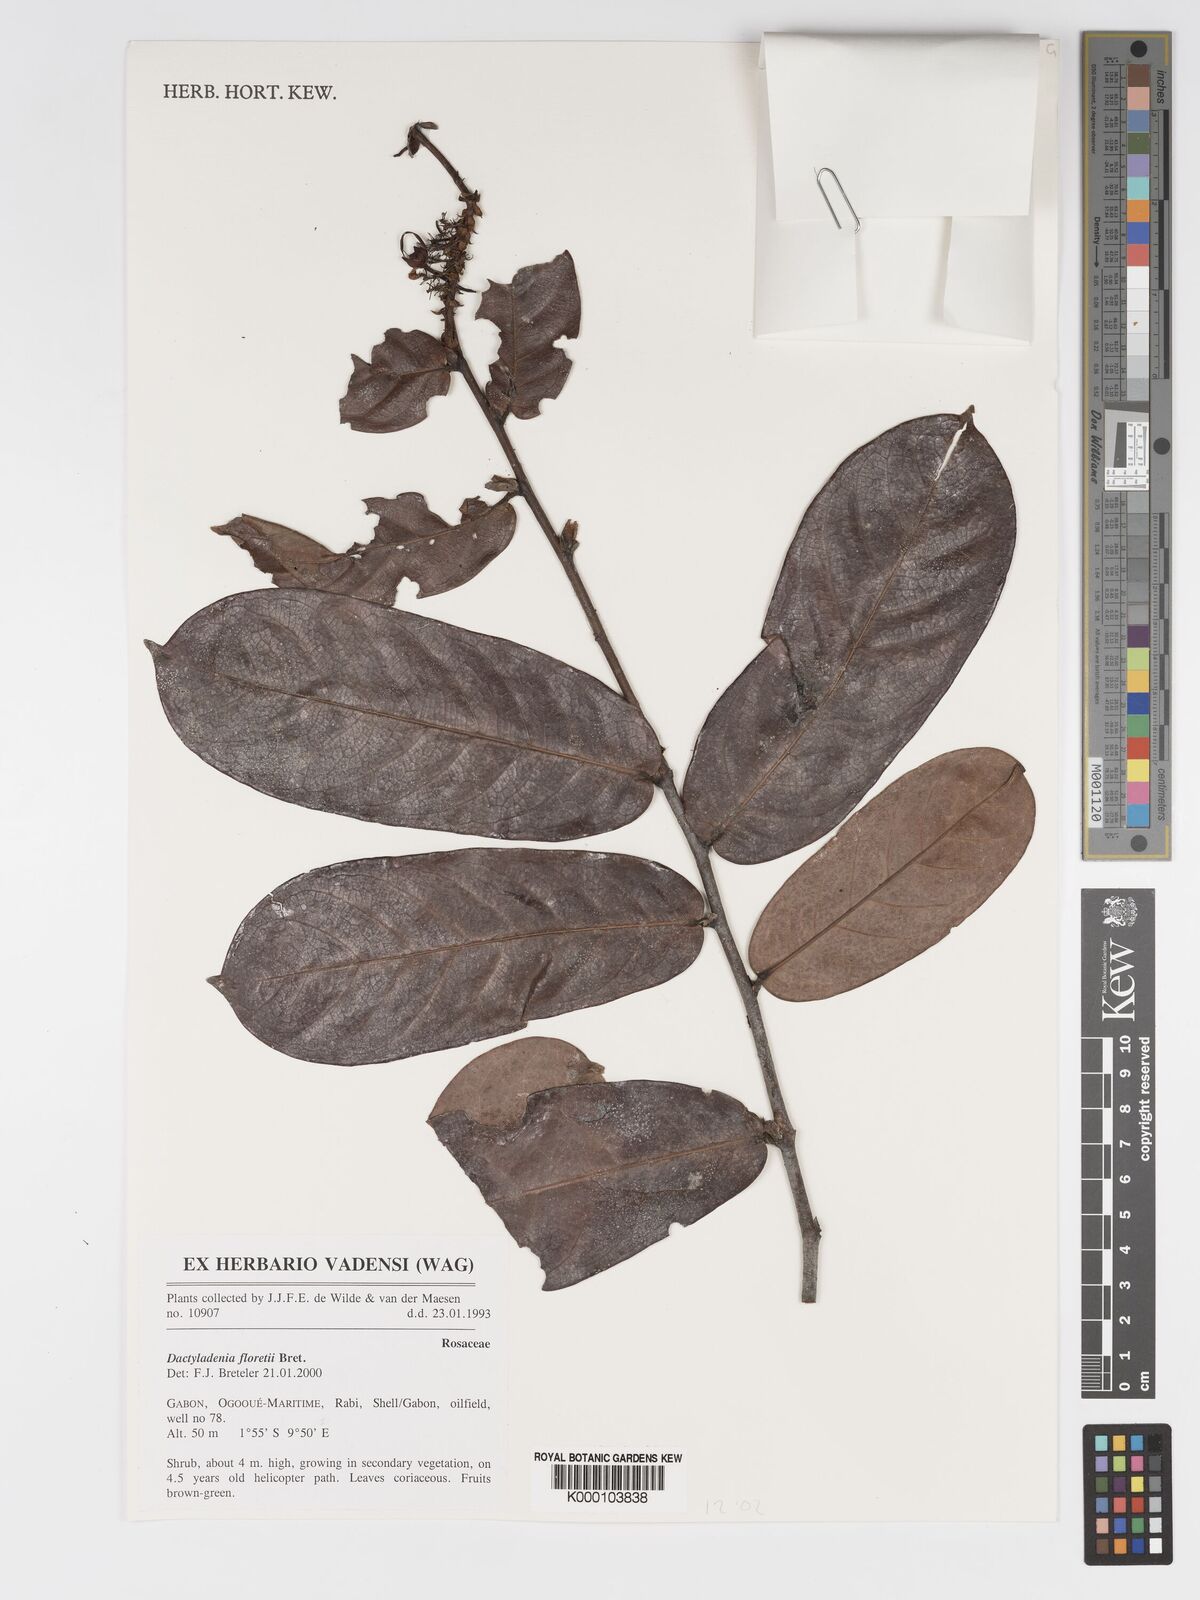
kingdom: Plantae
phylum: Tracheophyta
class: Magnoliopsida
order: Malpighiales
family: Chrysobalanaceae
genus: Dactyladenia
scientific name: Dactyladenia floretii
